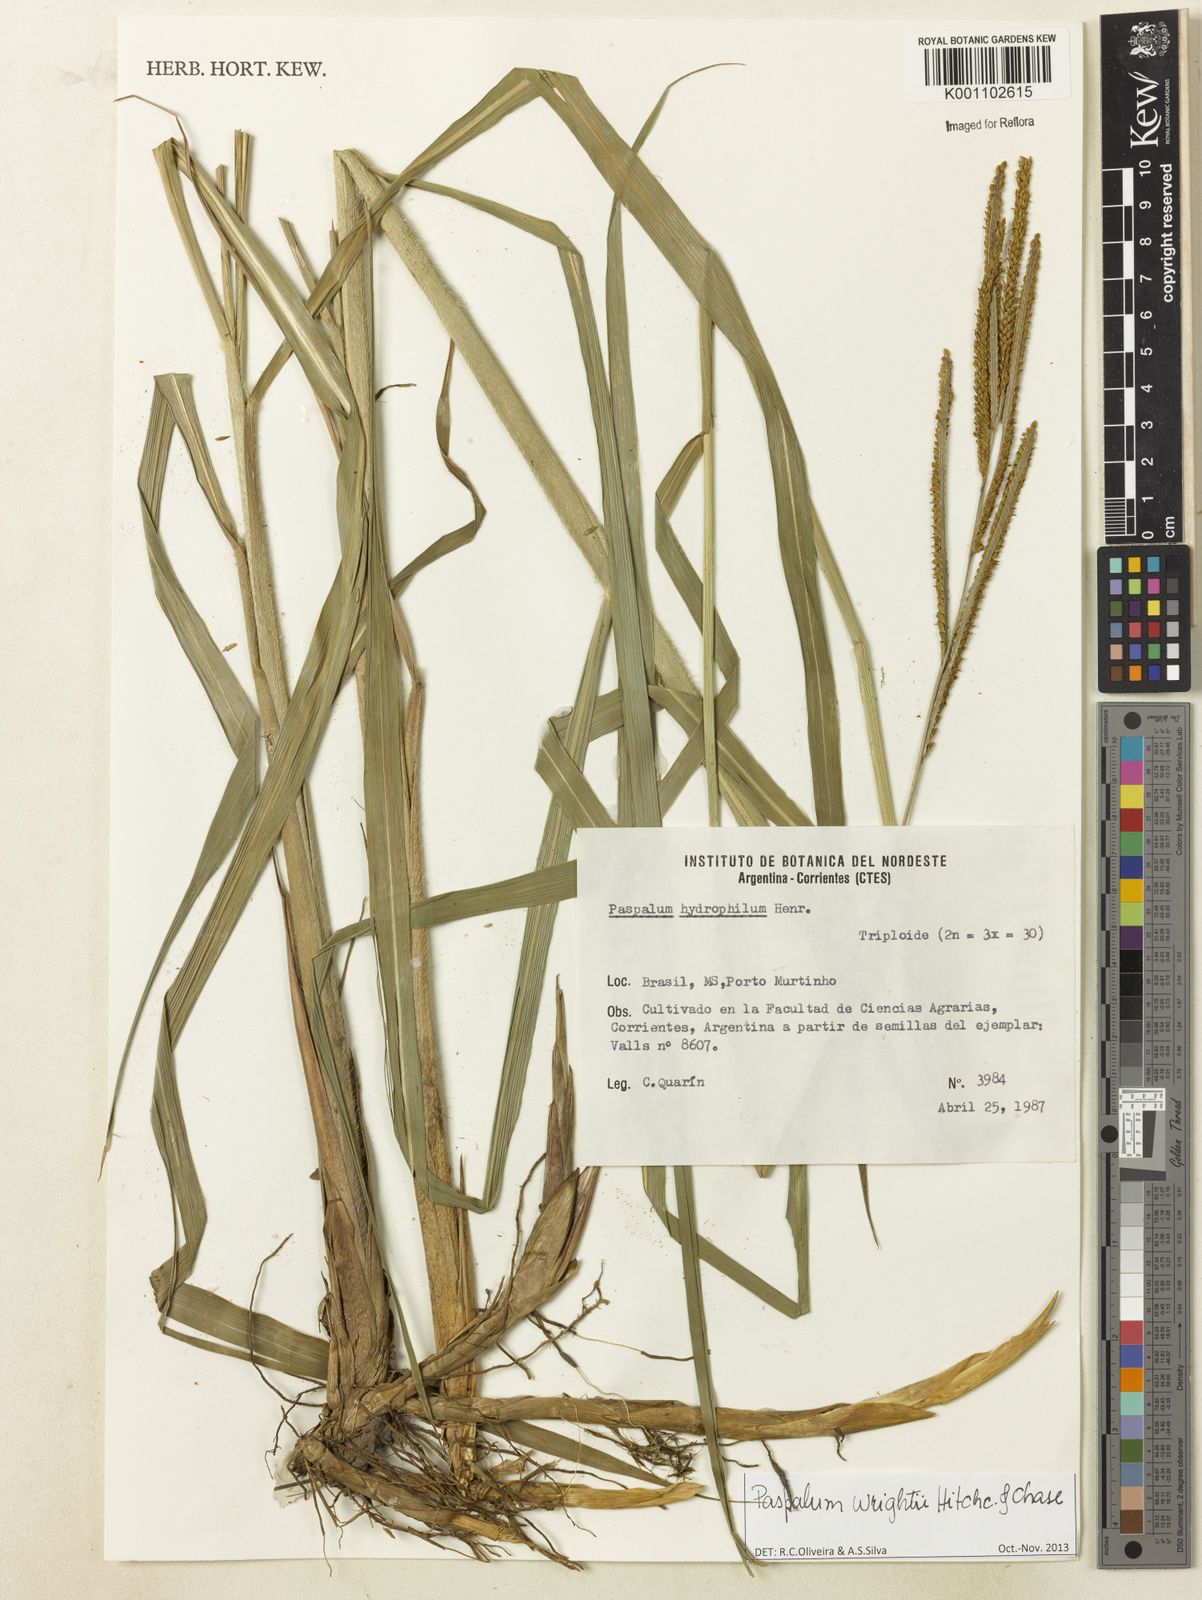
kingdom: Plantae
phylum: Tracheophyta
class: Liliopsida
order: Poales
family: Poaceae
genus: Paspalum
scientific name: Paspalum wrightii
